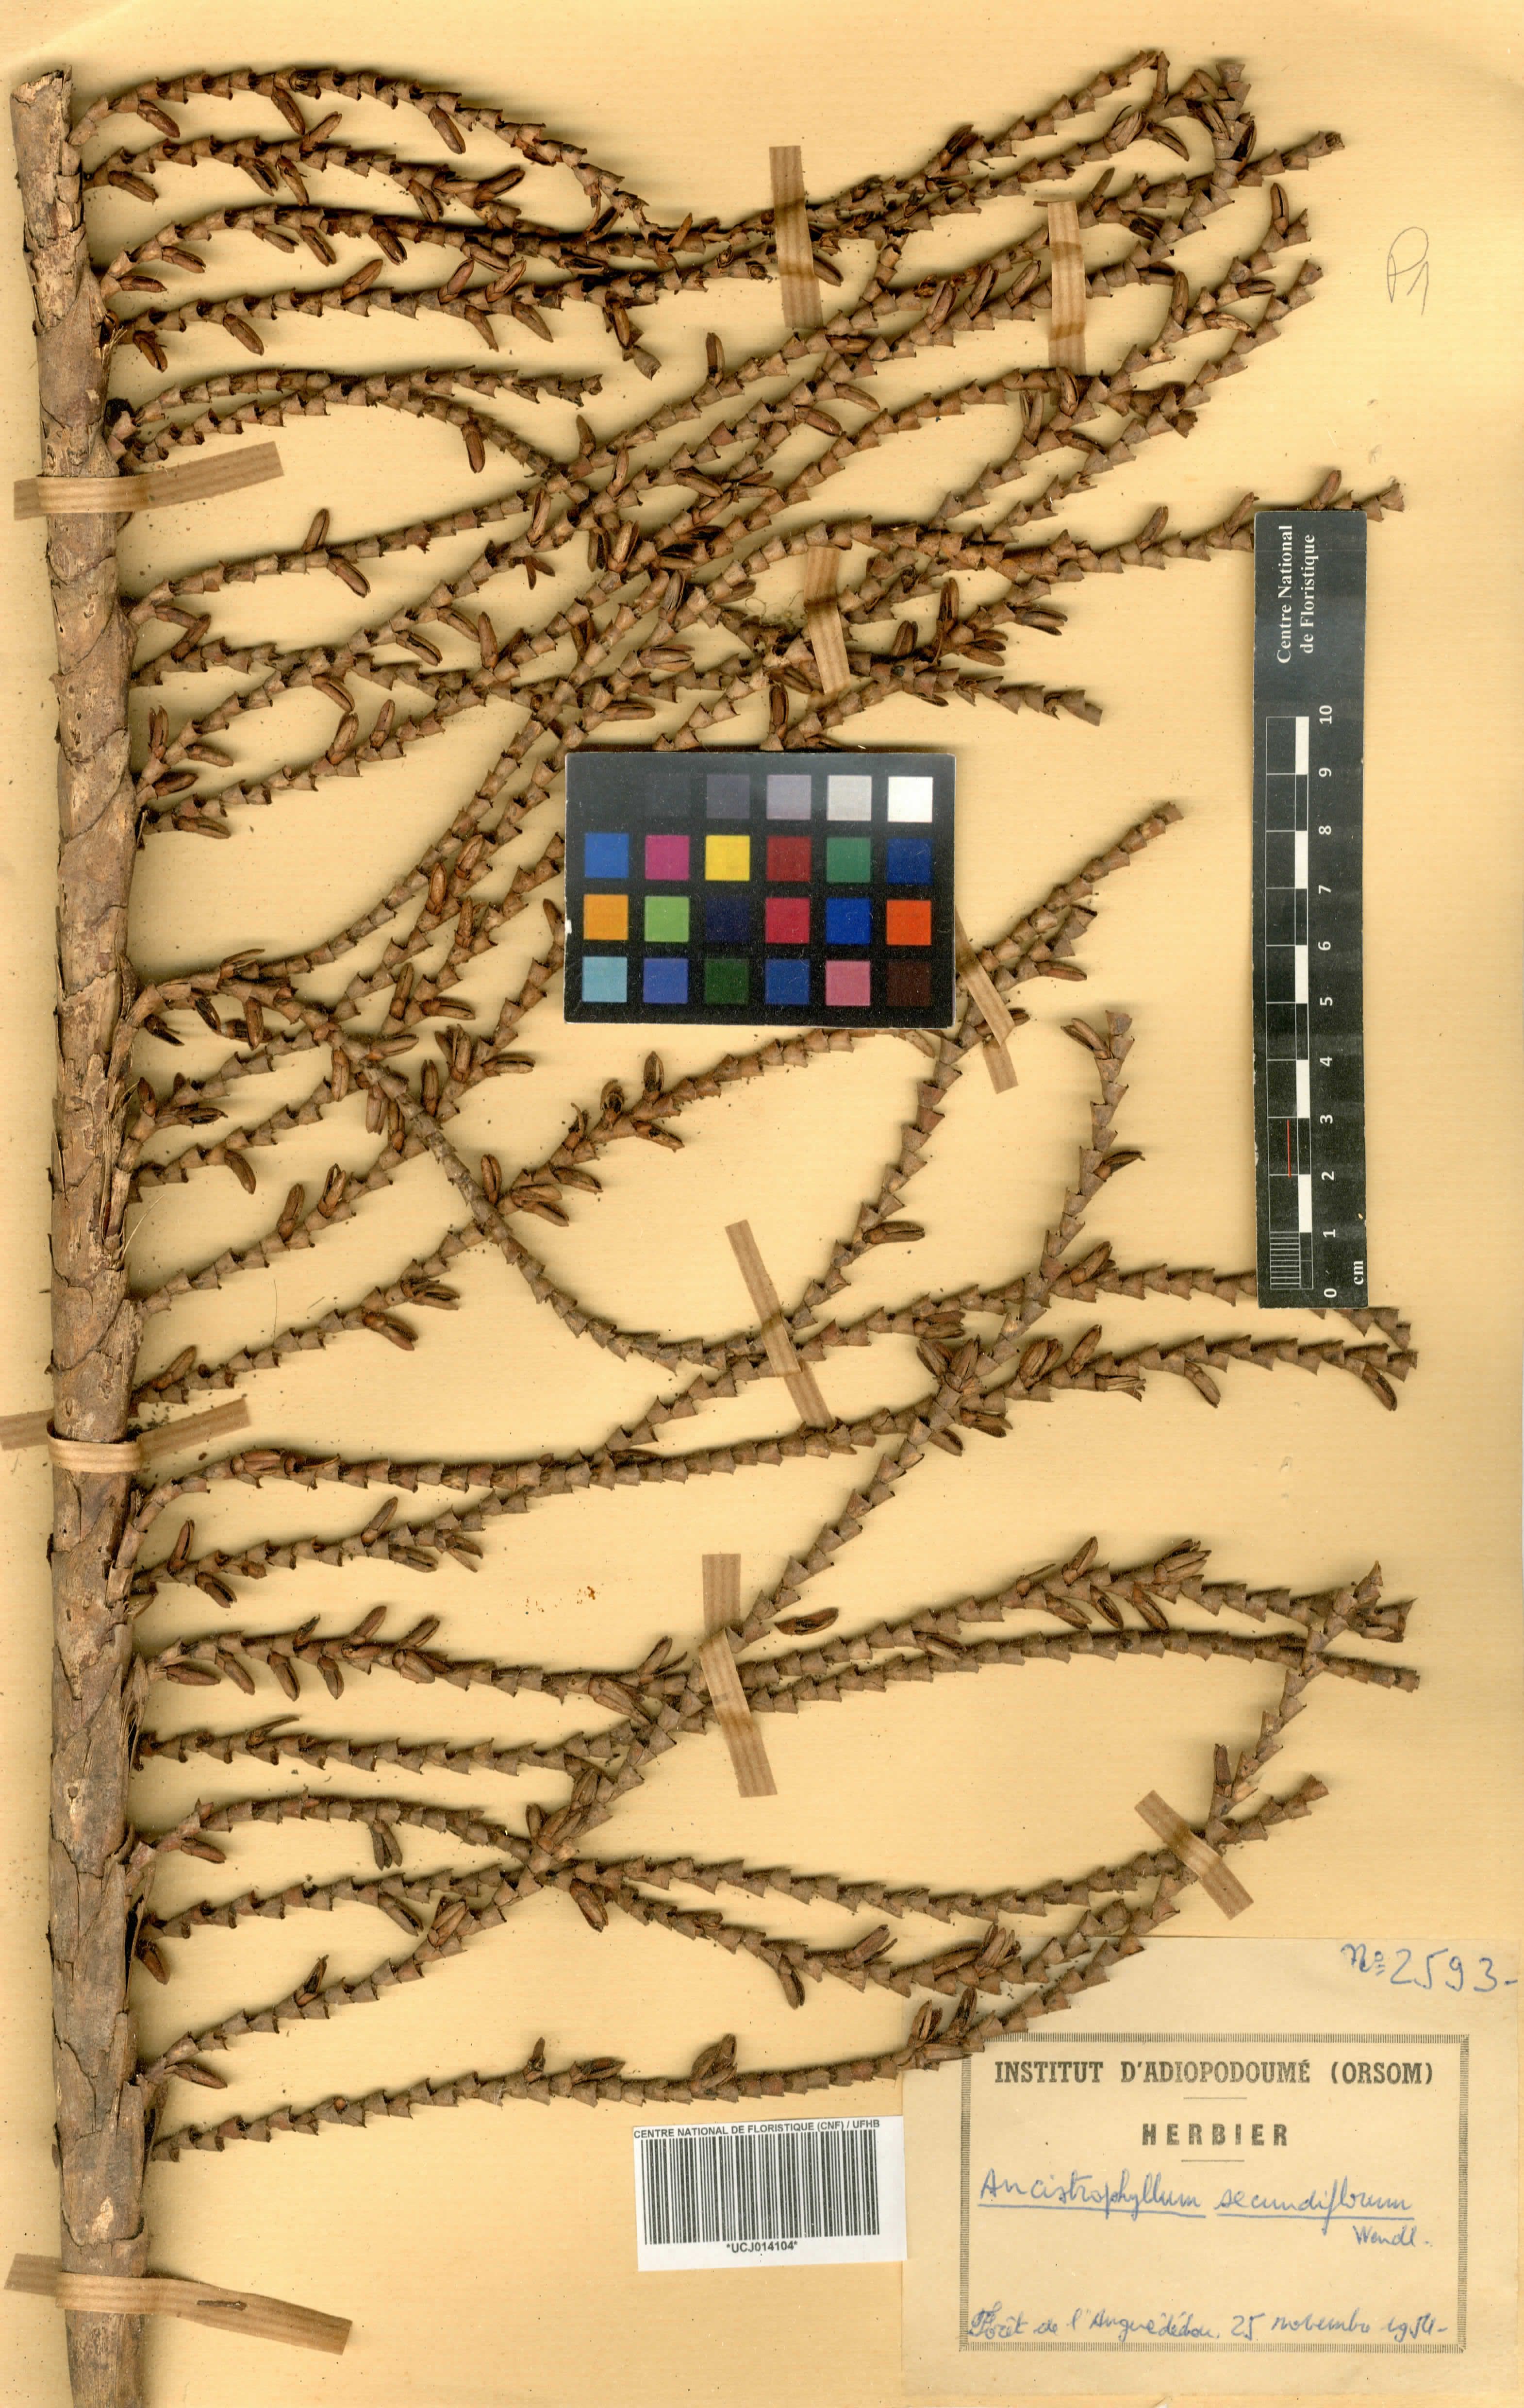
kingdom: Plantae
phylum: Tracheophyta
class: Liliopsida
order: Arecales
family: Arecaceae
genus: Laccosperma
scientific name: Laccosperma secundiflorum
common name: Rattan
